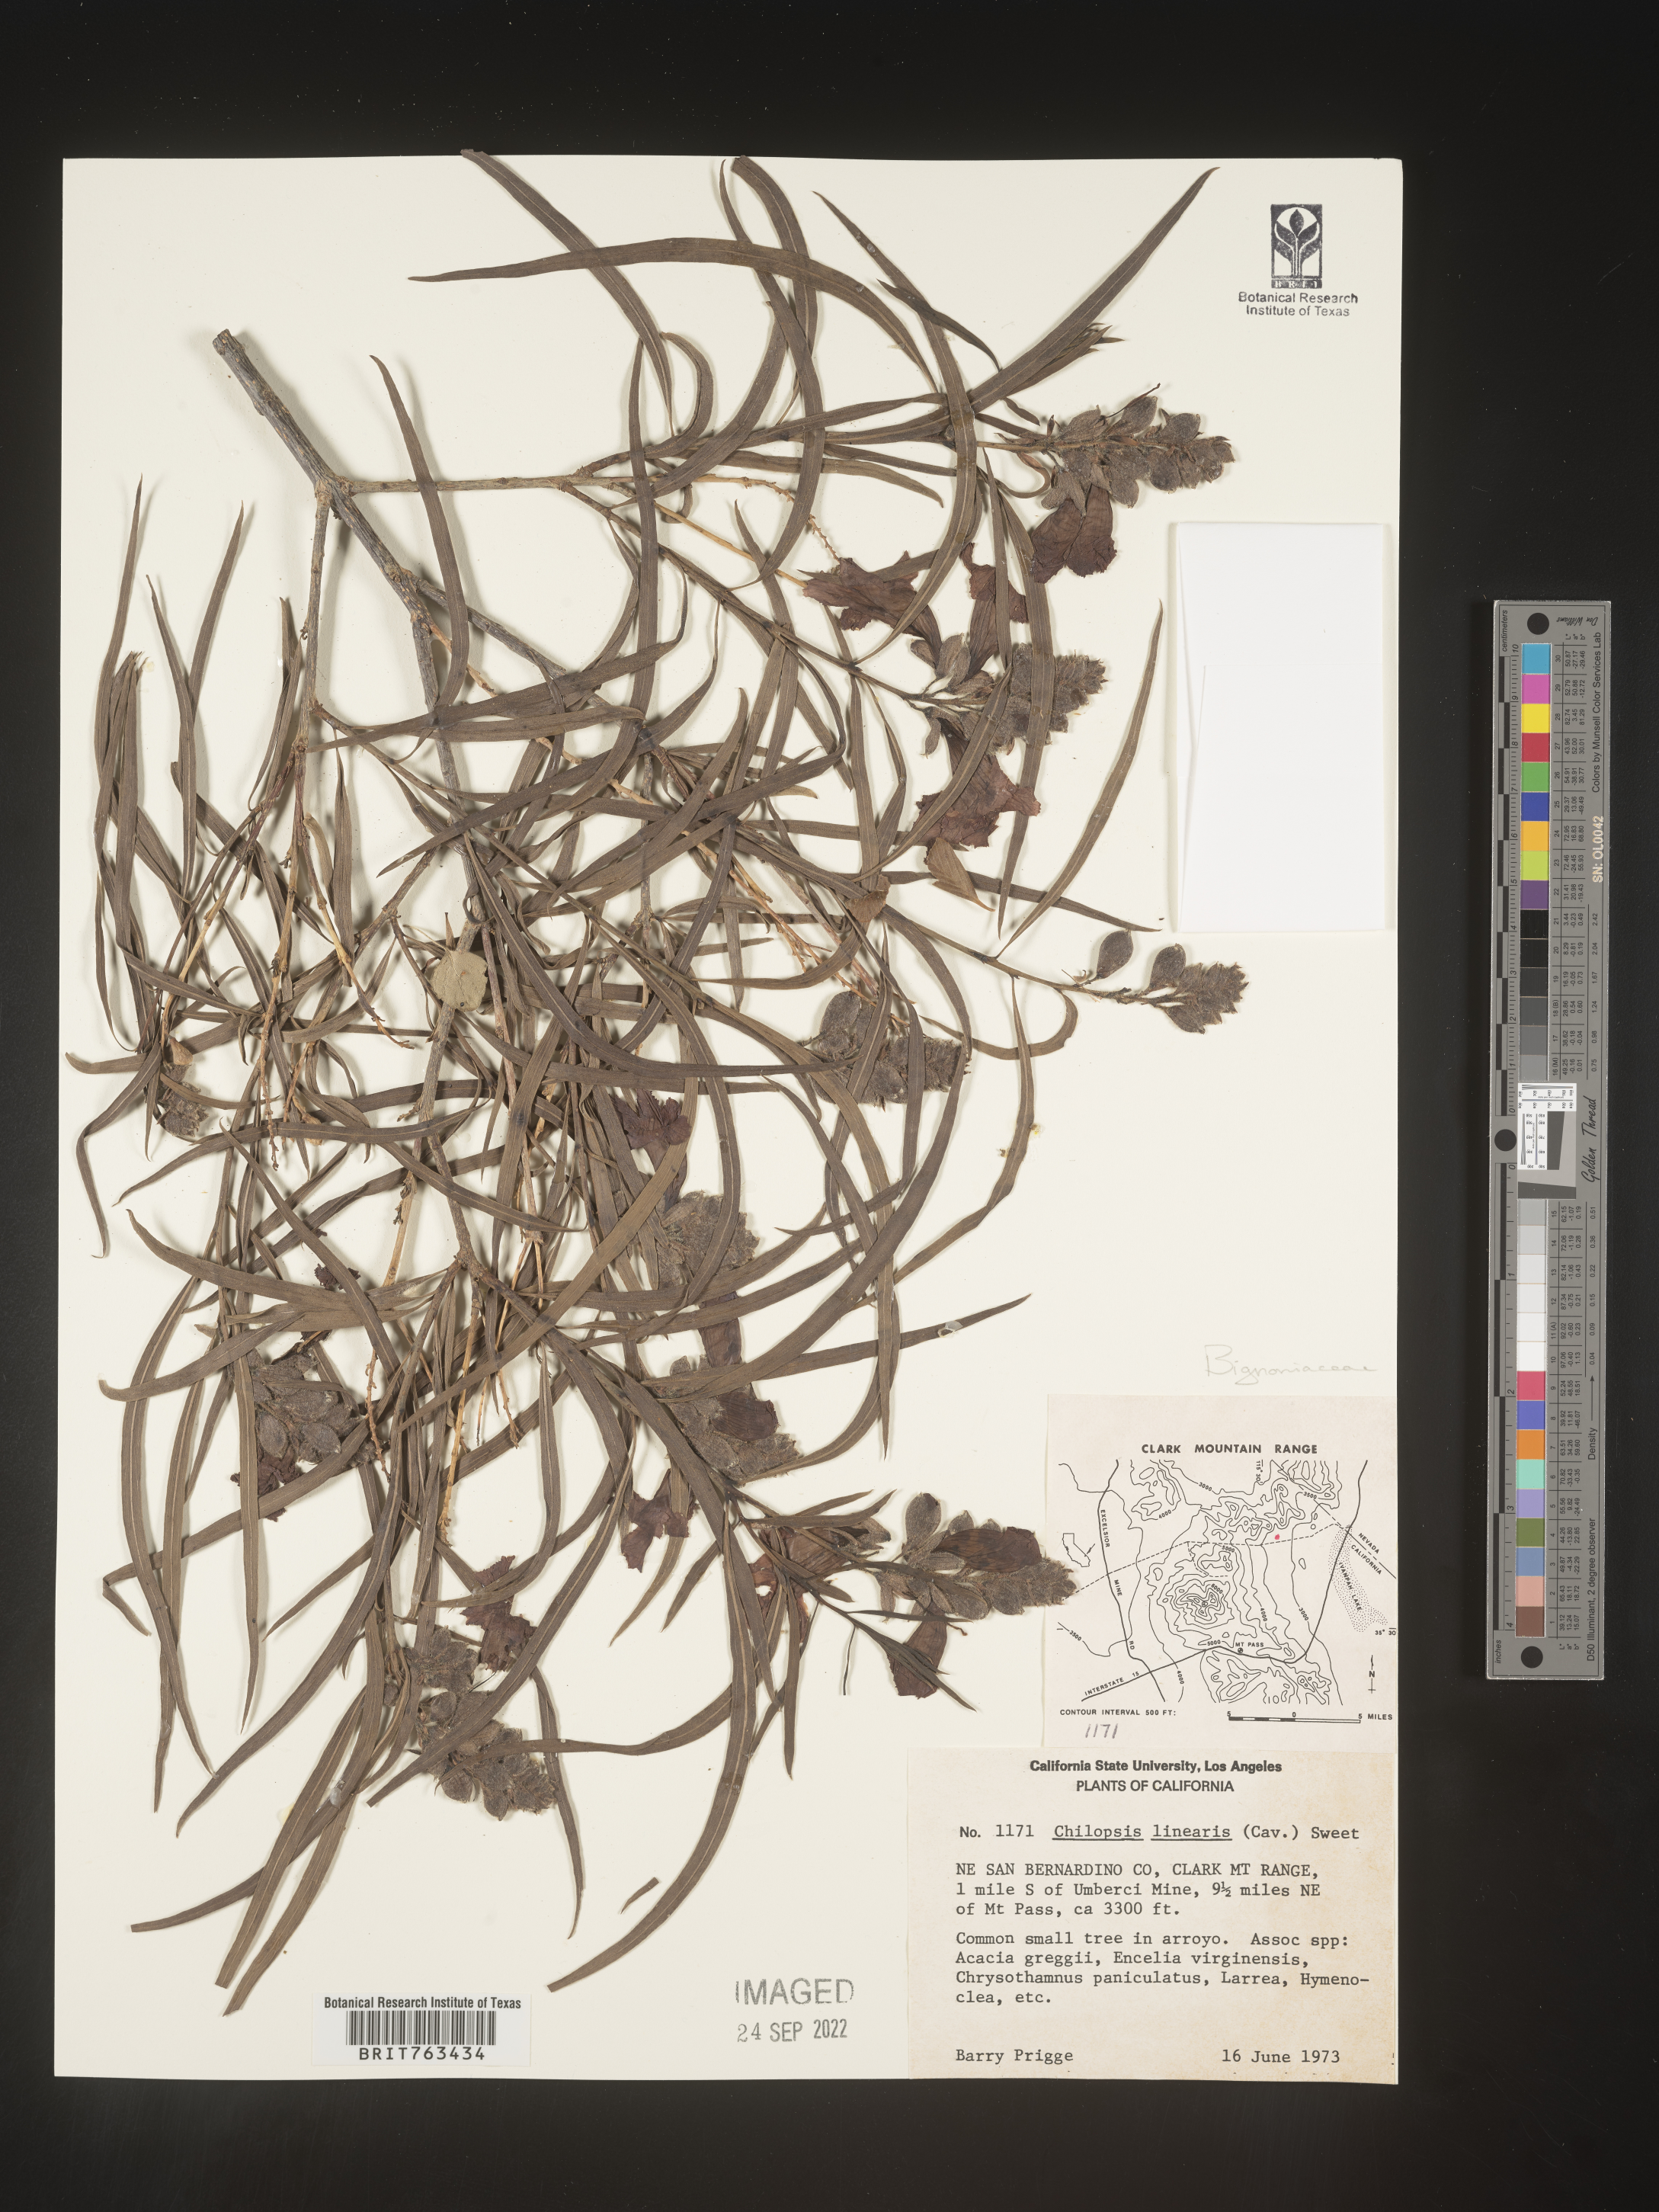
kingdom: Plantae
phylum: Tracheophyta
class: Magnoliopsida
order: Lamiales
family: Bignoniaceae
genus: Chilopsis
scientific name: Chilopsis linearis
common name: Desert-willow
